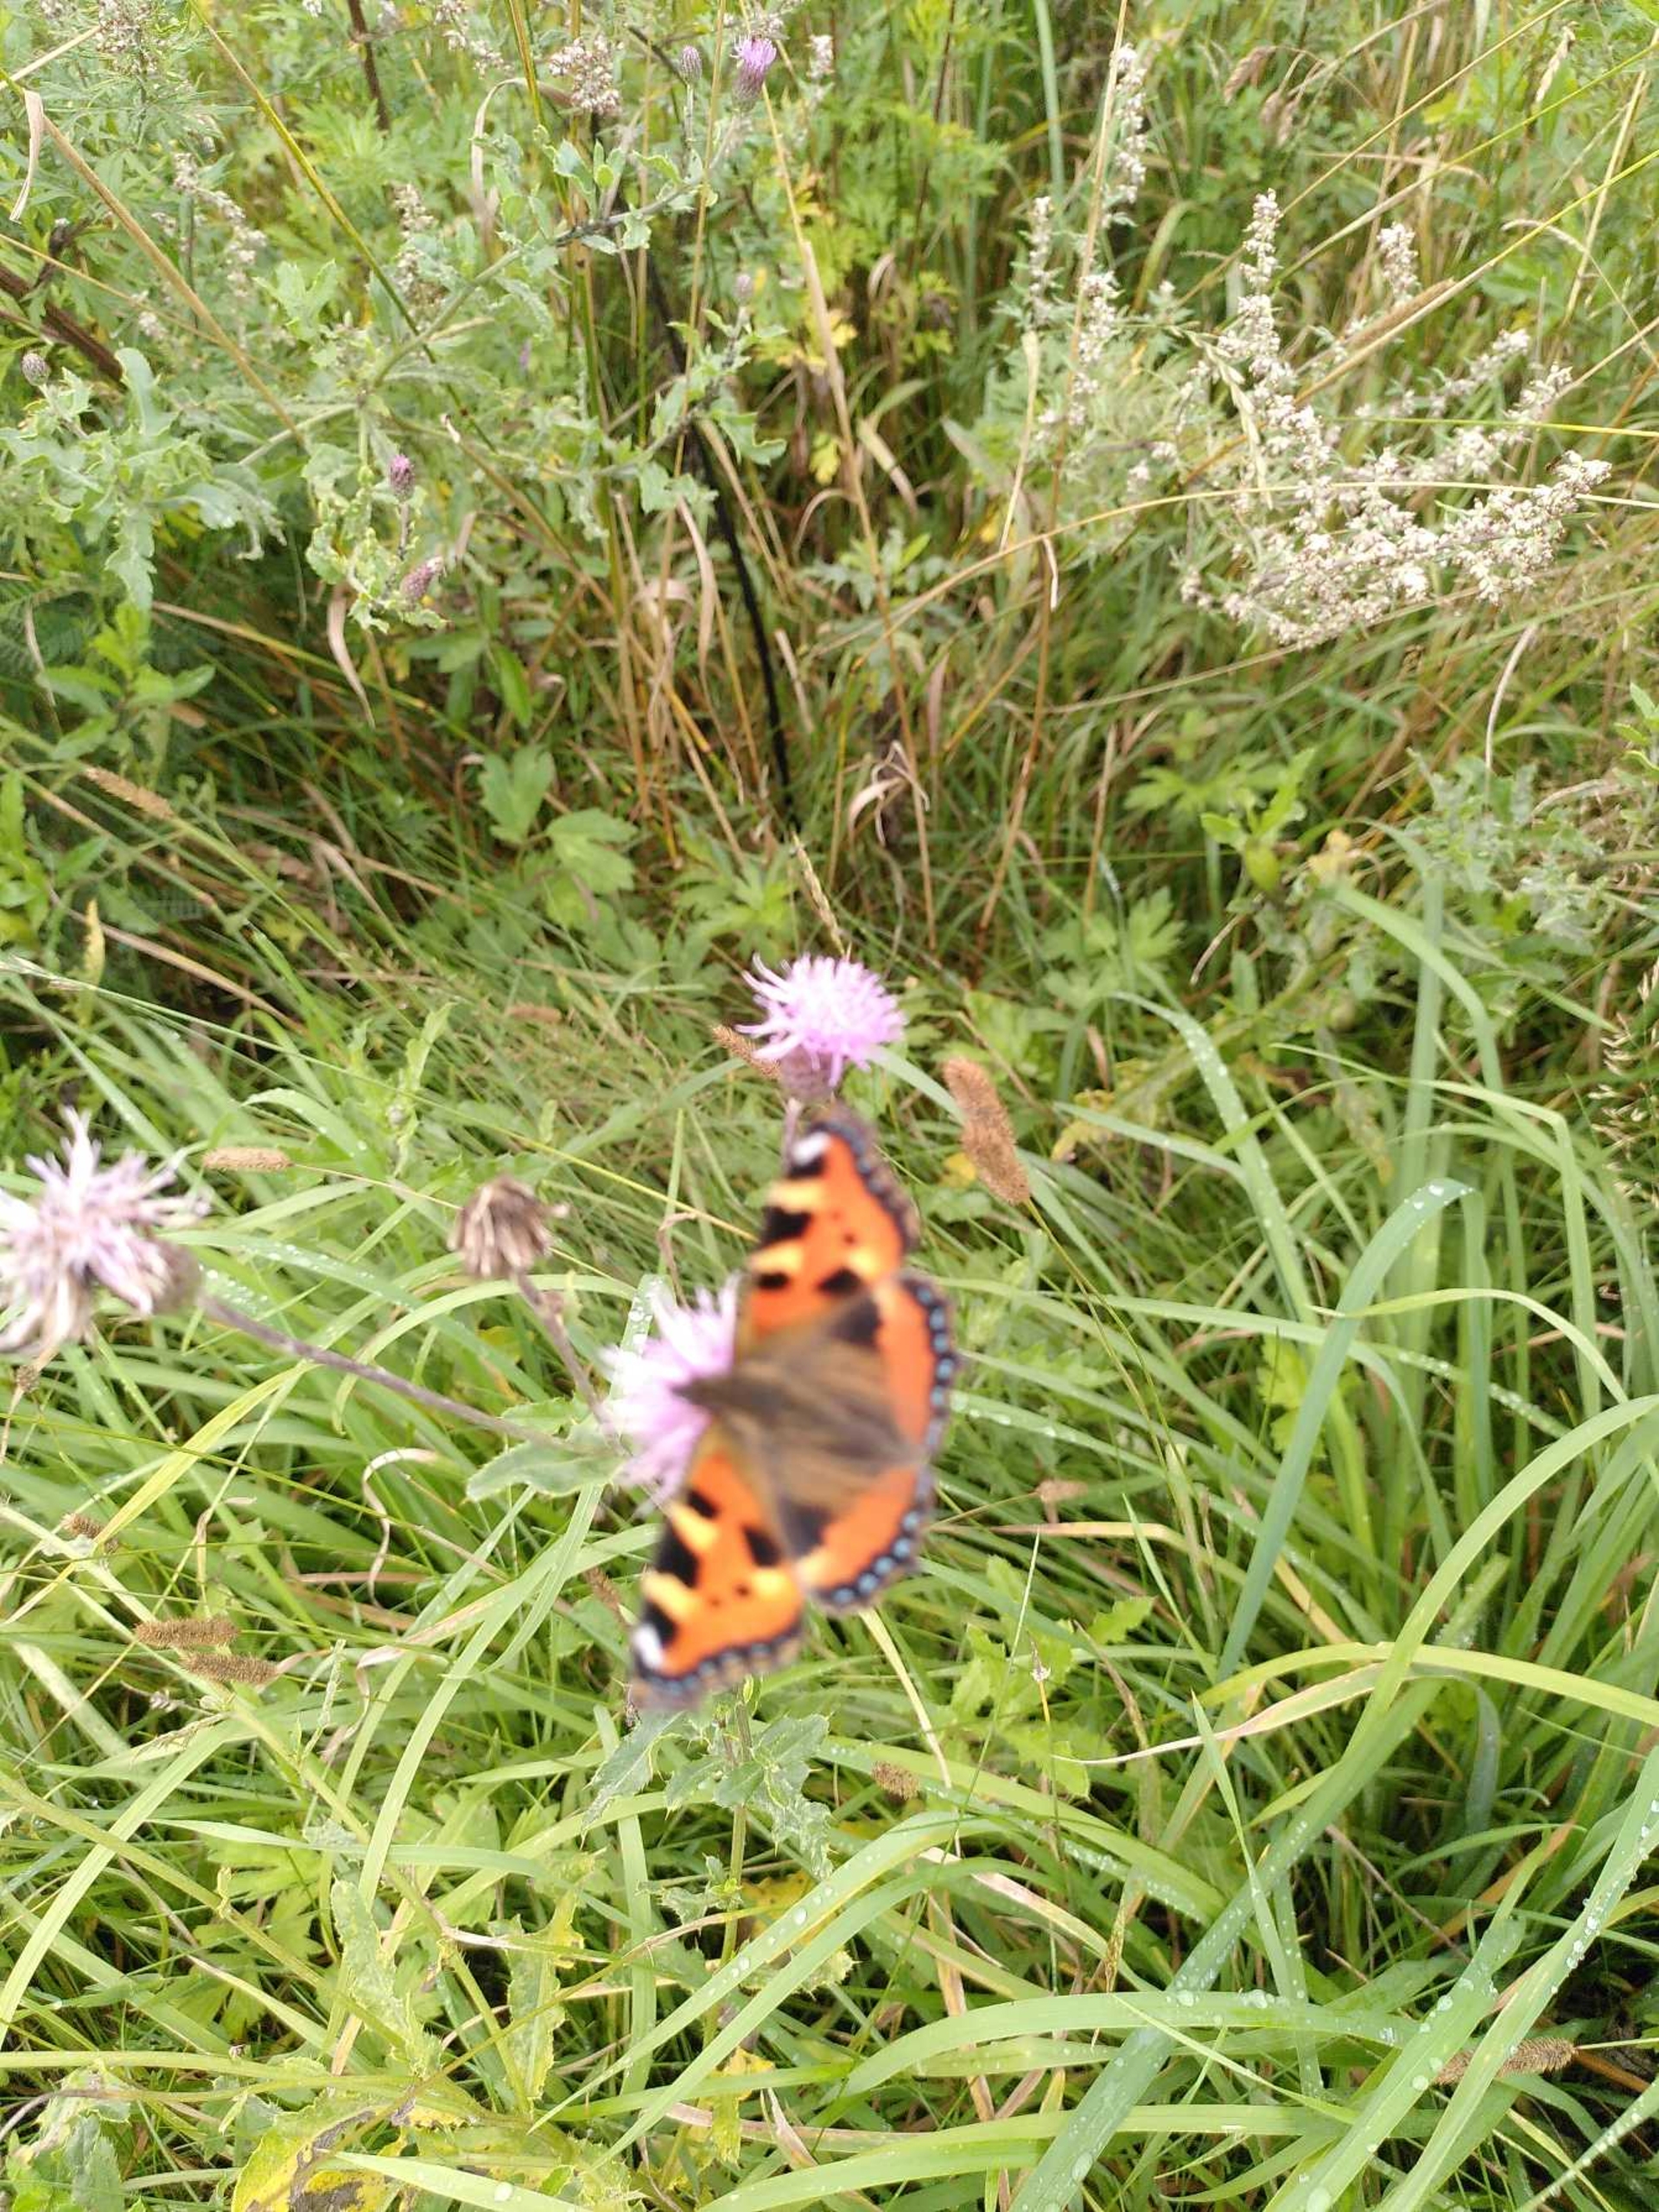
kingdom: Animalia
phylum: Arthropoda
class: Insecta
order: Lepidoptera
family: Nymphalidae
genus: Aglais
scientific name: Aglais urticae
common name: Nældens takvinge
